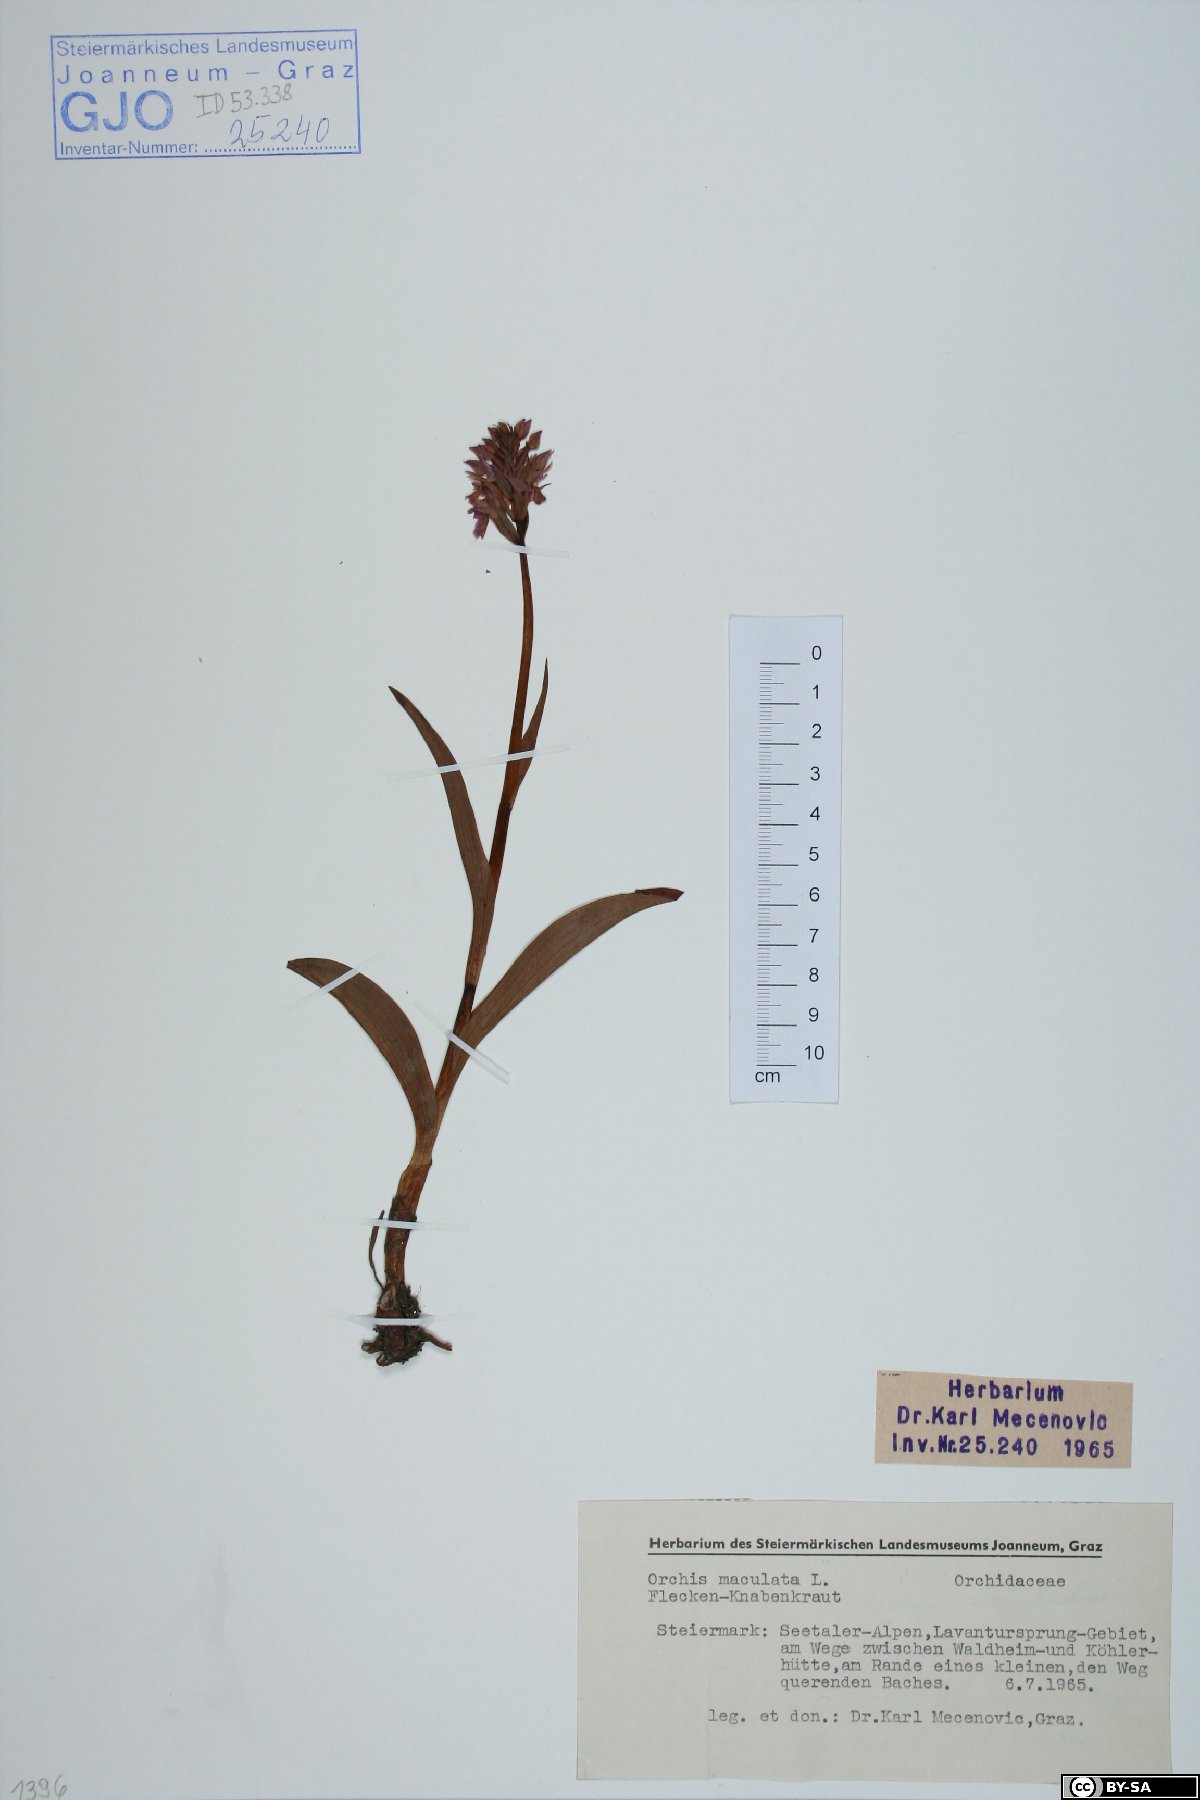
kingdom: Plantae
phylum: Tracheophyta
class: Liliopsida
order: Asparagales
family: Orchidaceae
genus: Dactylorhiza
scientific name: Dactylorhiza maculata
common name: Heath spotted-orchid
